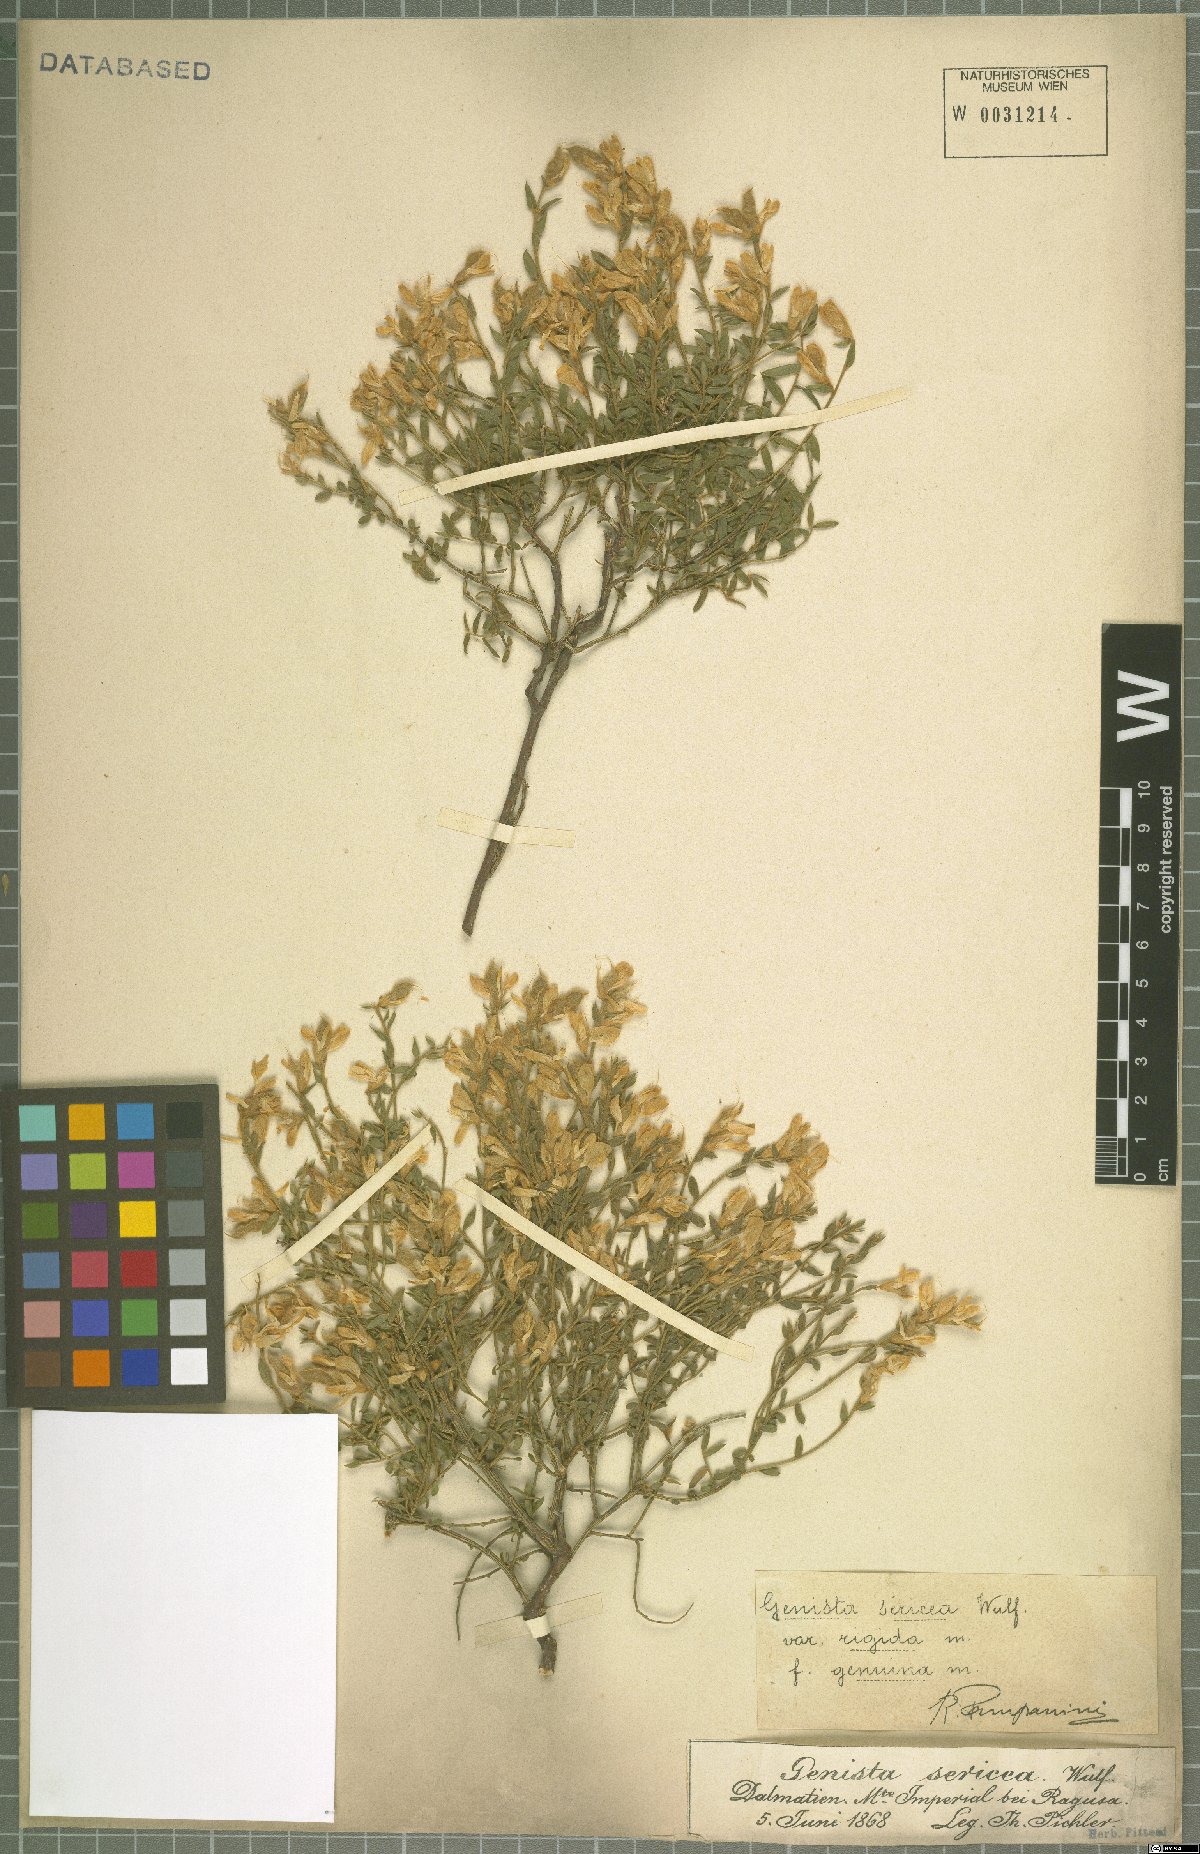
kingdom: Plantae
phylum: Tracheophyta
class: Magnoliopsida
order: Fabales
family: Fabaceae
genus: Genista
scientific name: Genista sericea
